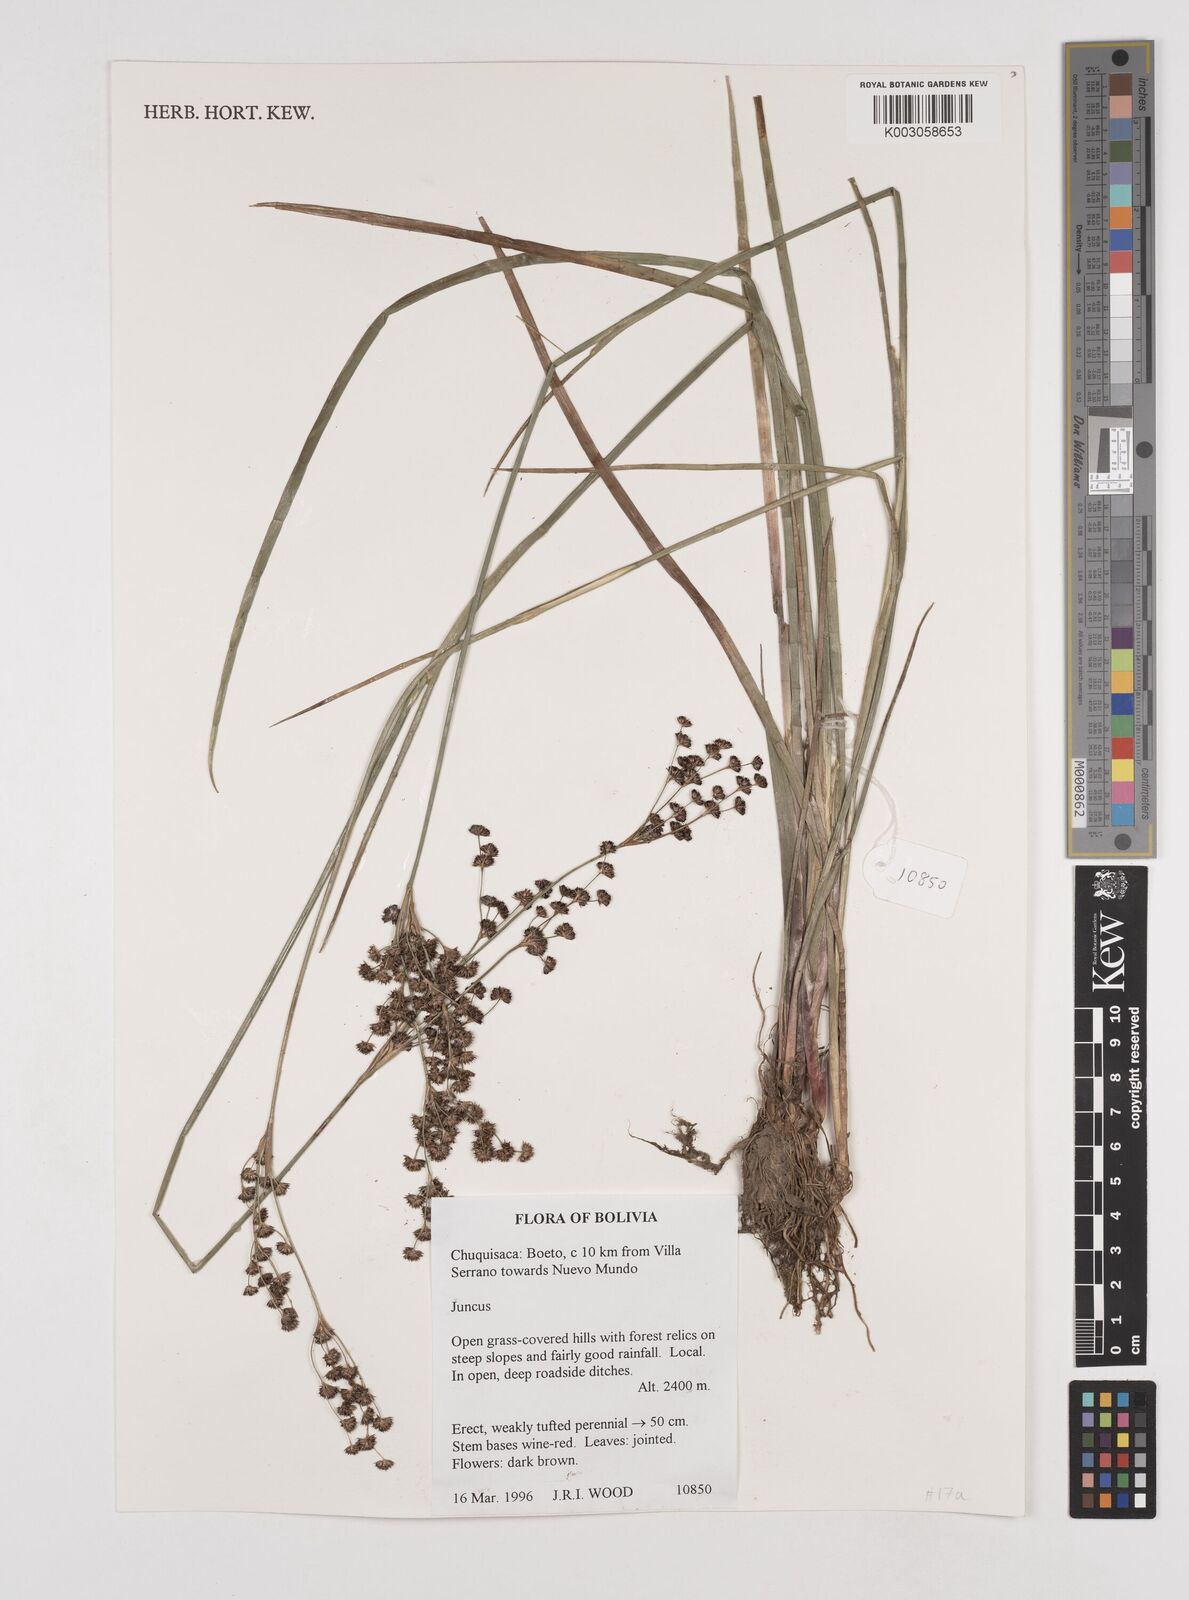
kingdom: Plantae
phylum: Tracheophyta
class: Liliopsida
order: Poales
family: Juncaceae
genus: Juncus
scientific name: Juncus
